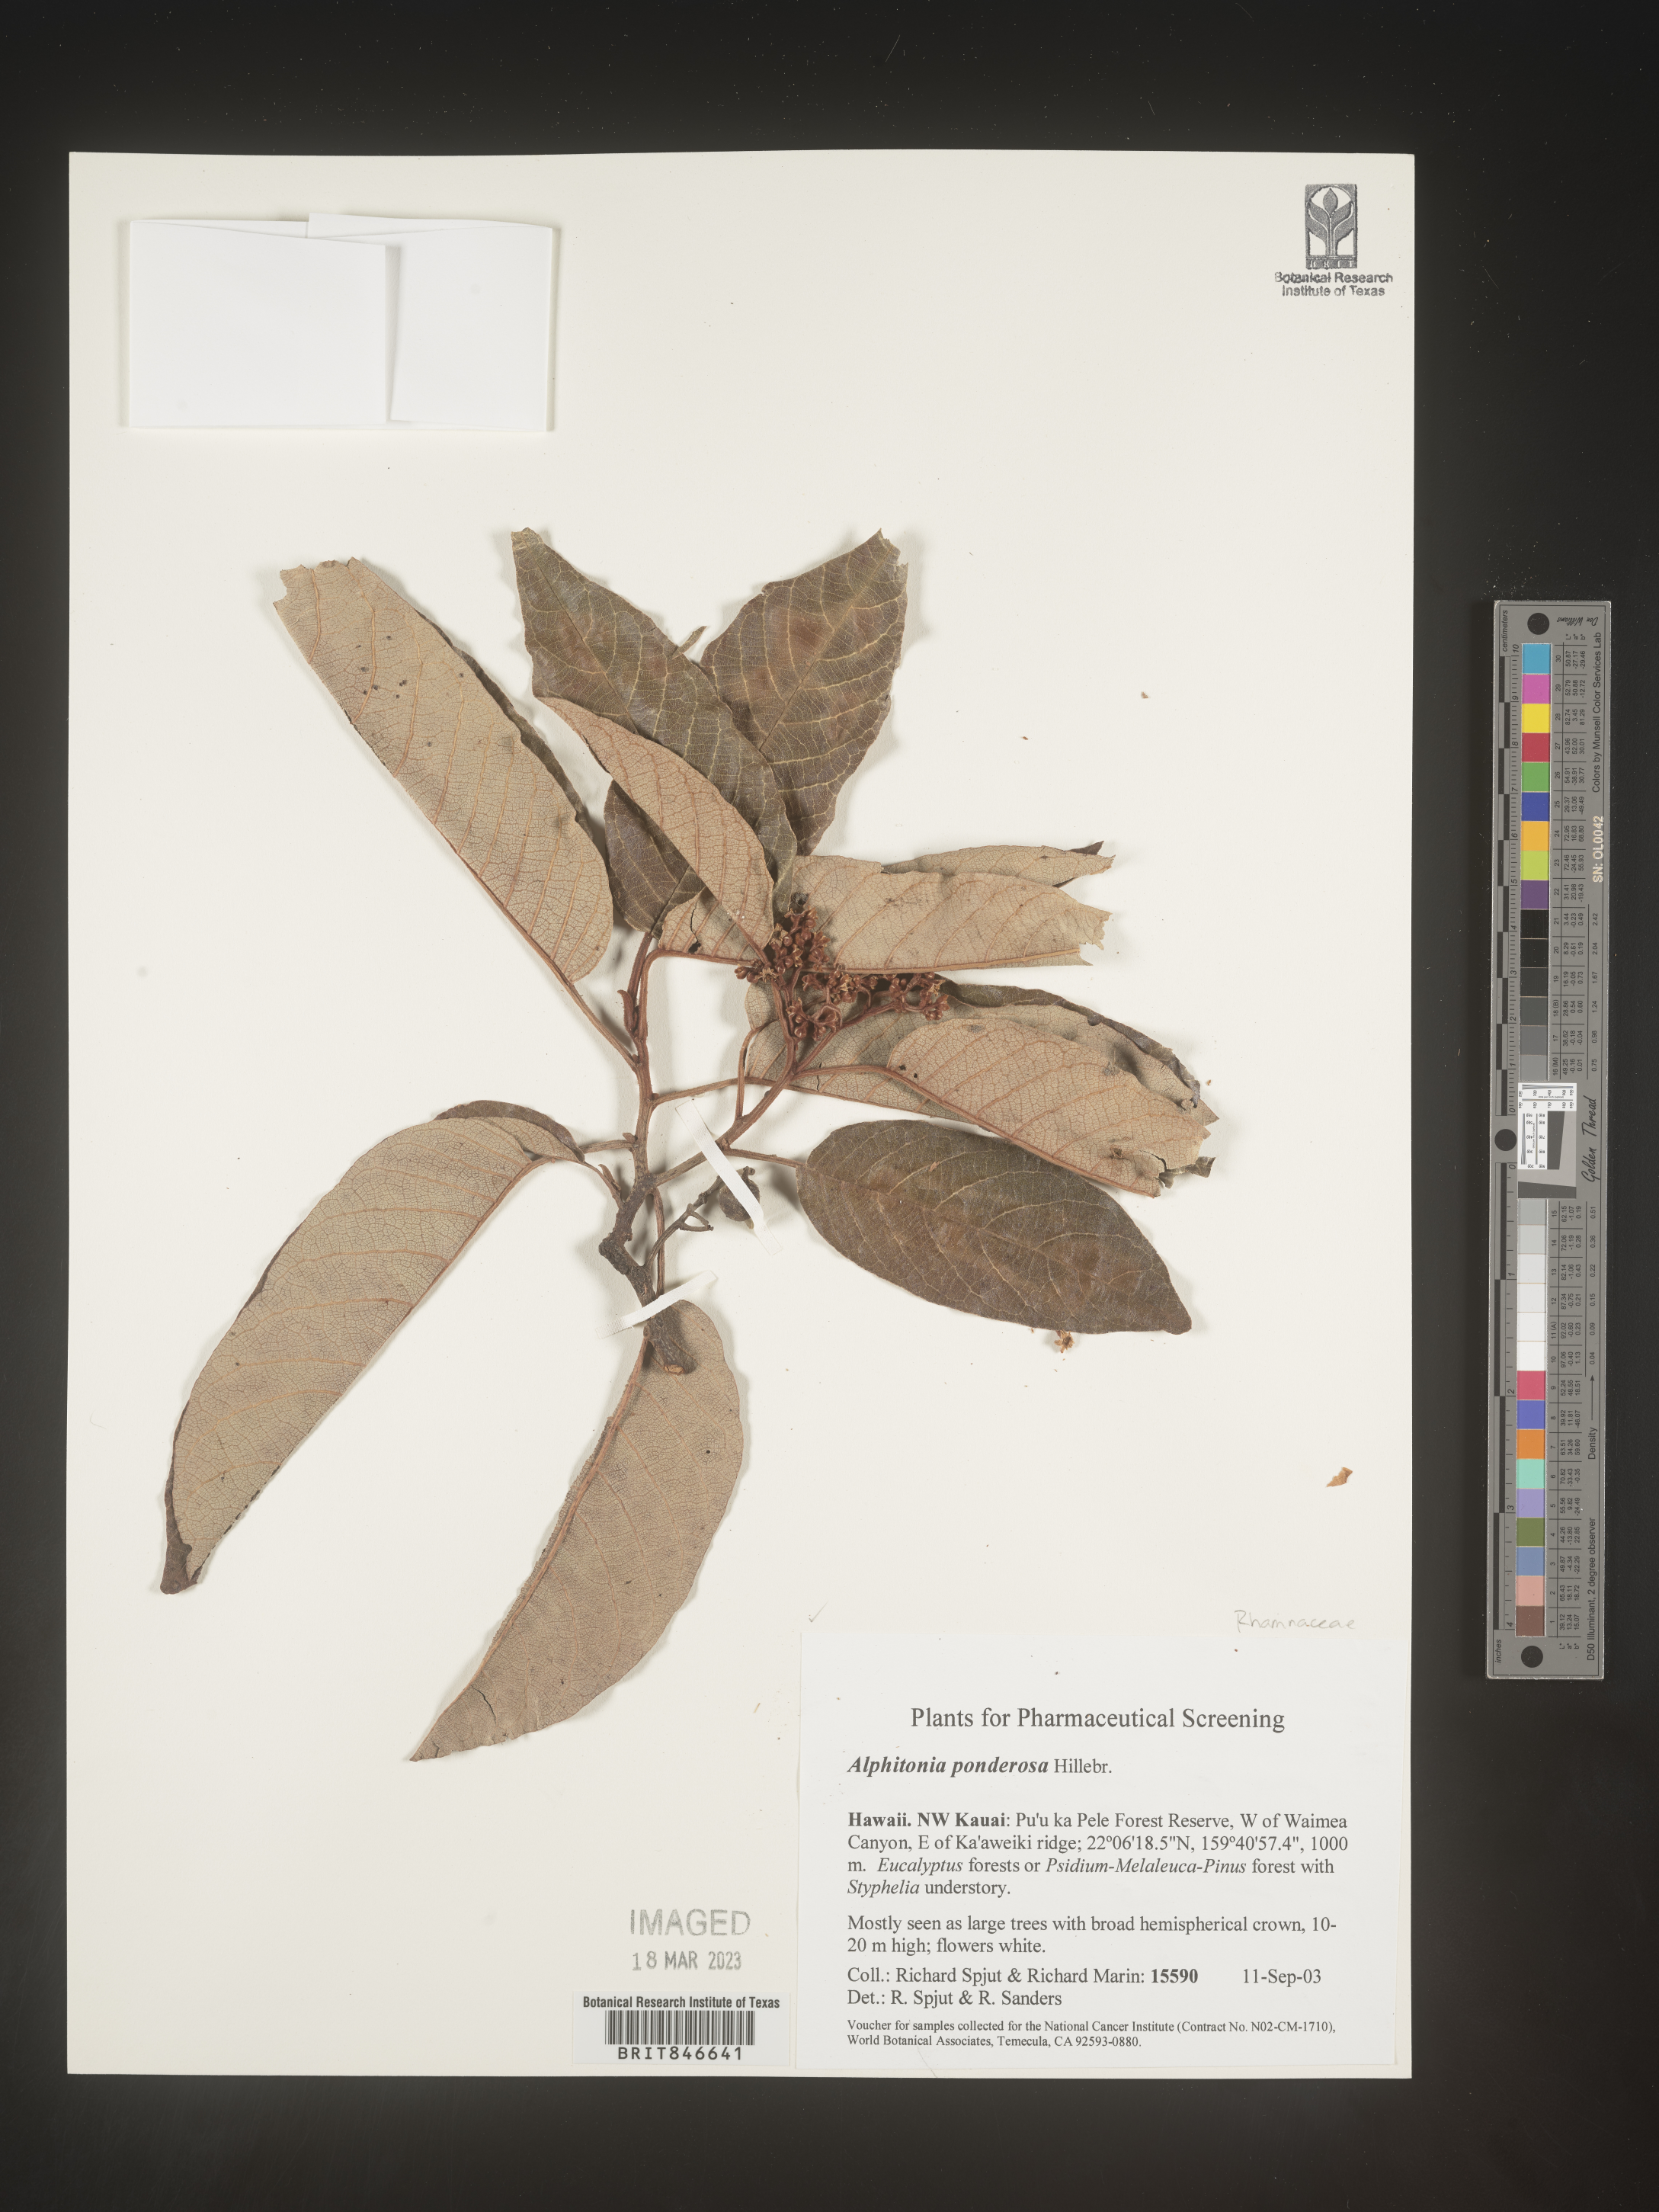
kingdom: Plantae
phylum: Tracheophyta
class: Magnoliopsida
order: Rosales
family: Rhamnaceae
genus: Alphitonia
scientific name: Alphitonia
